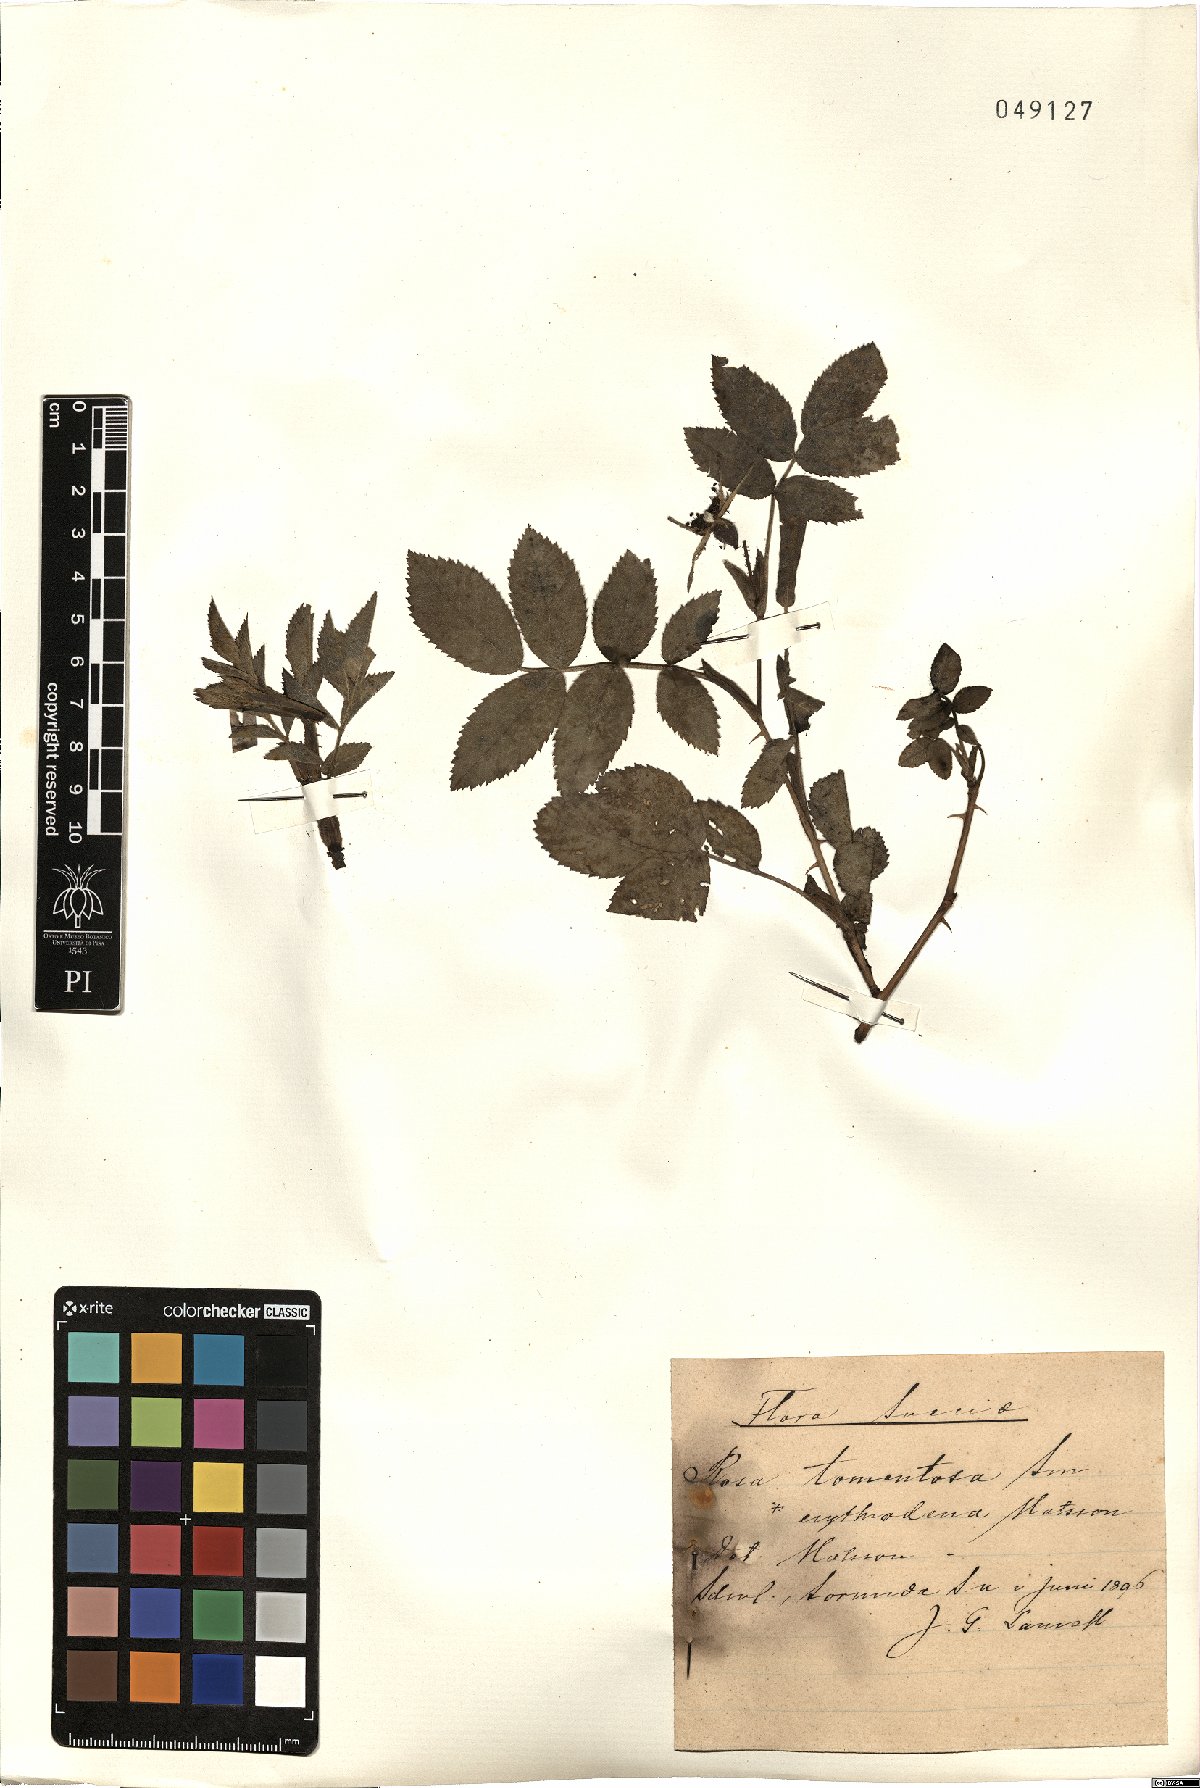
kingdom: Plantae
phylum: Tracheophyta
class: Magnoliopsida
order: Rosales
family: Rosaceae
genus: Rosa
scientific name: Rosa tomentosa
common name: Downy rose
